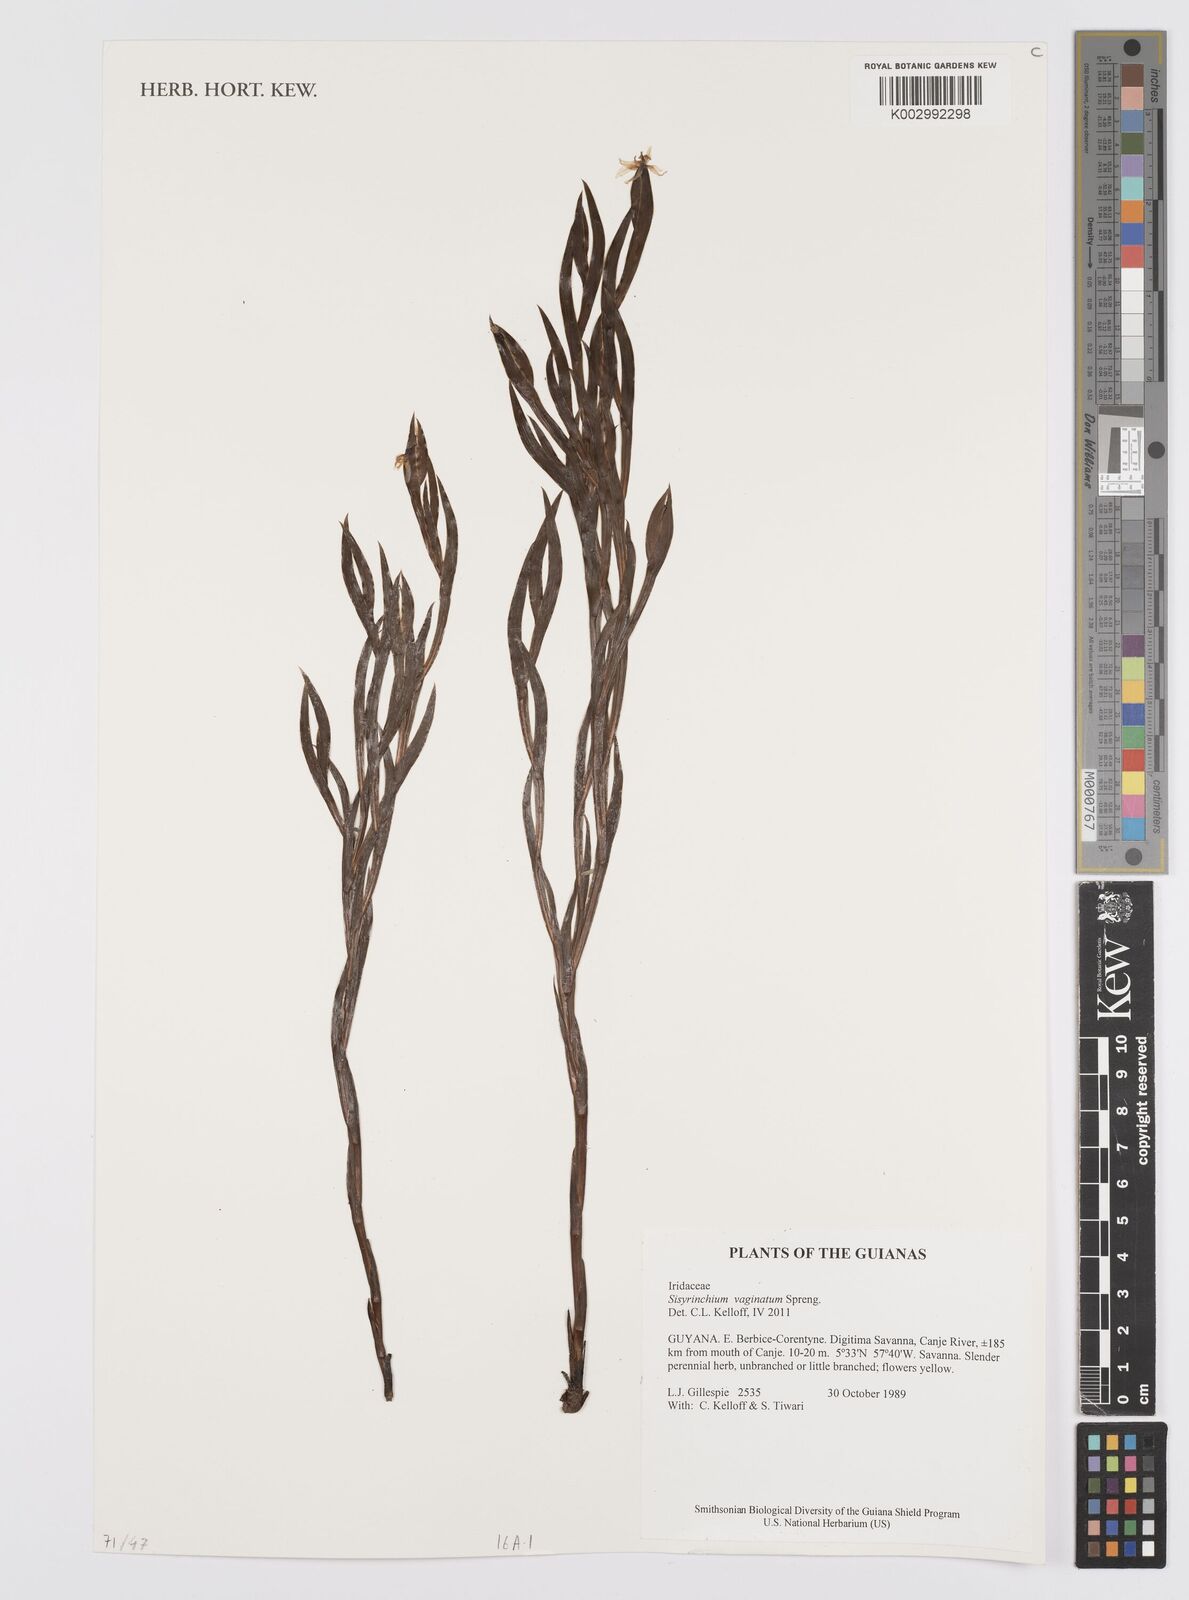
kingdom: Plantae
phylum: Tracheophyta
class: Liliopsida
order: Asparagales
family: Iridaceae
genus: Sisyrinchium
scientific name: Sisyrinchium
